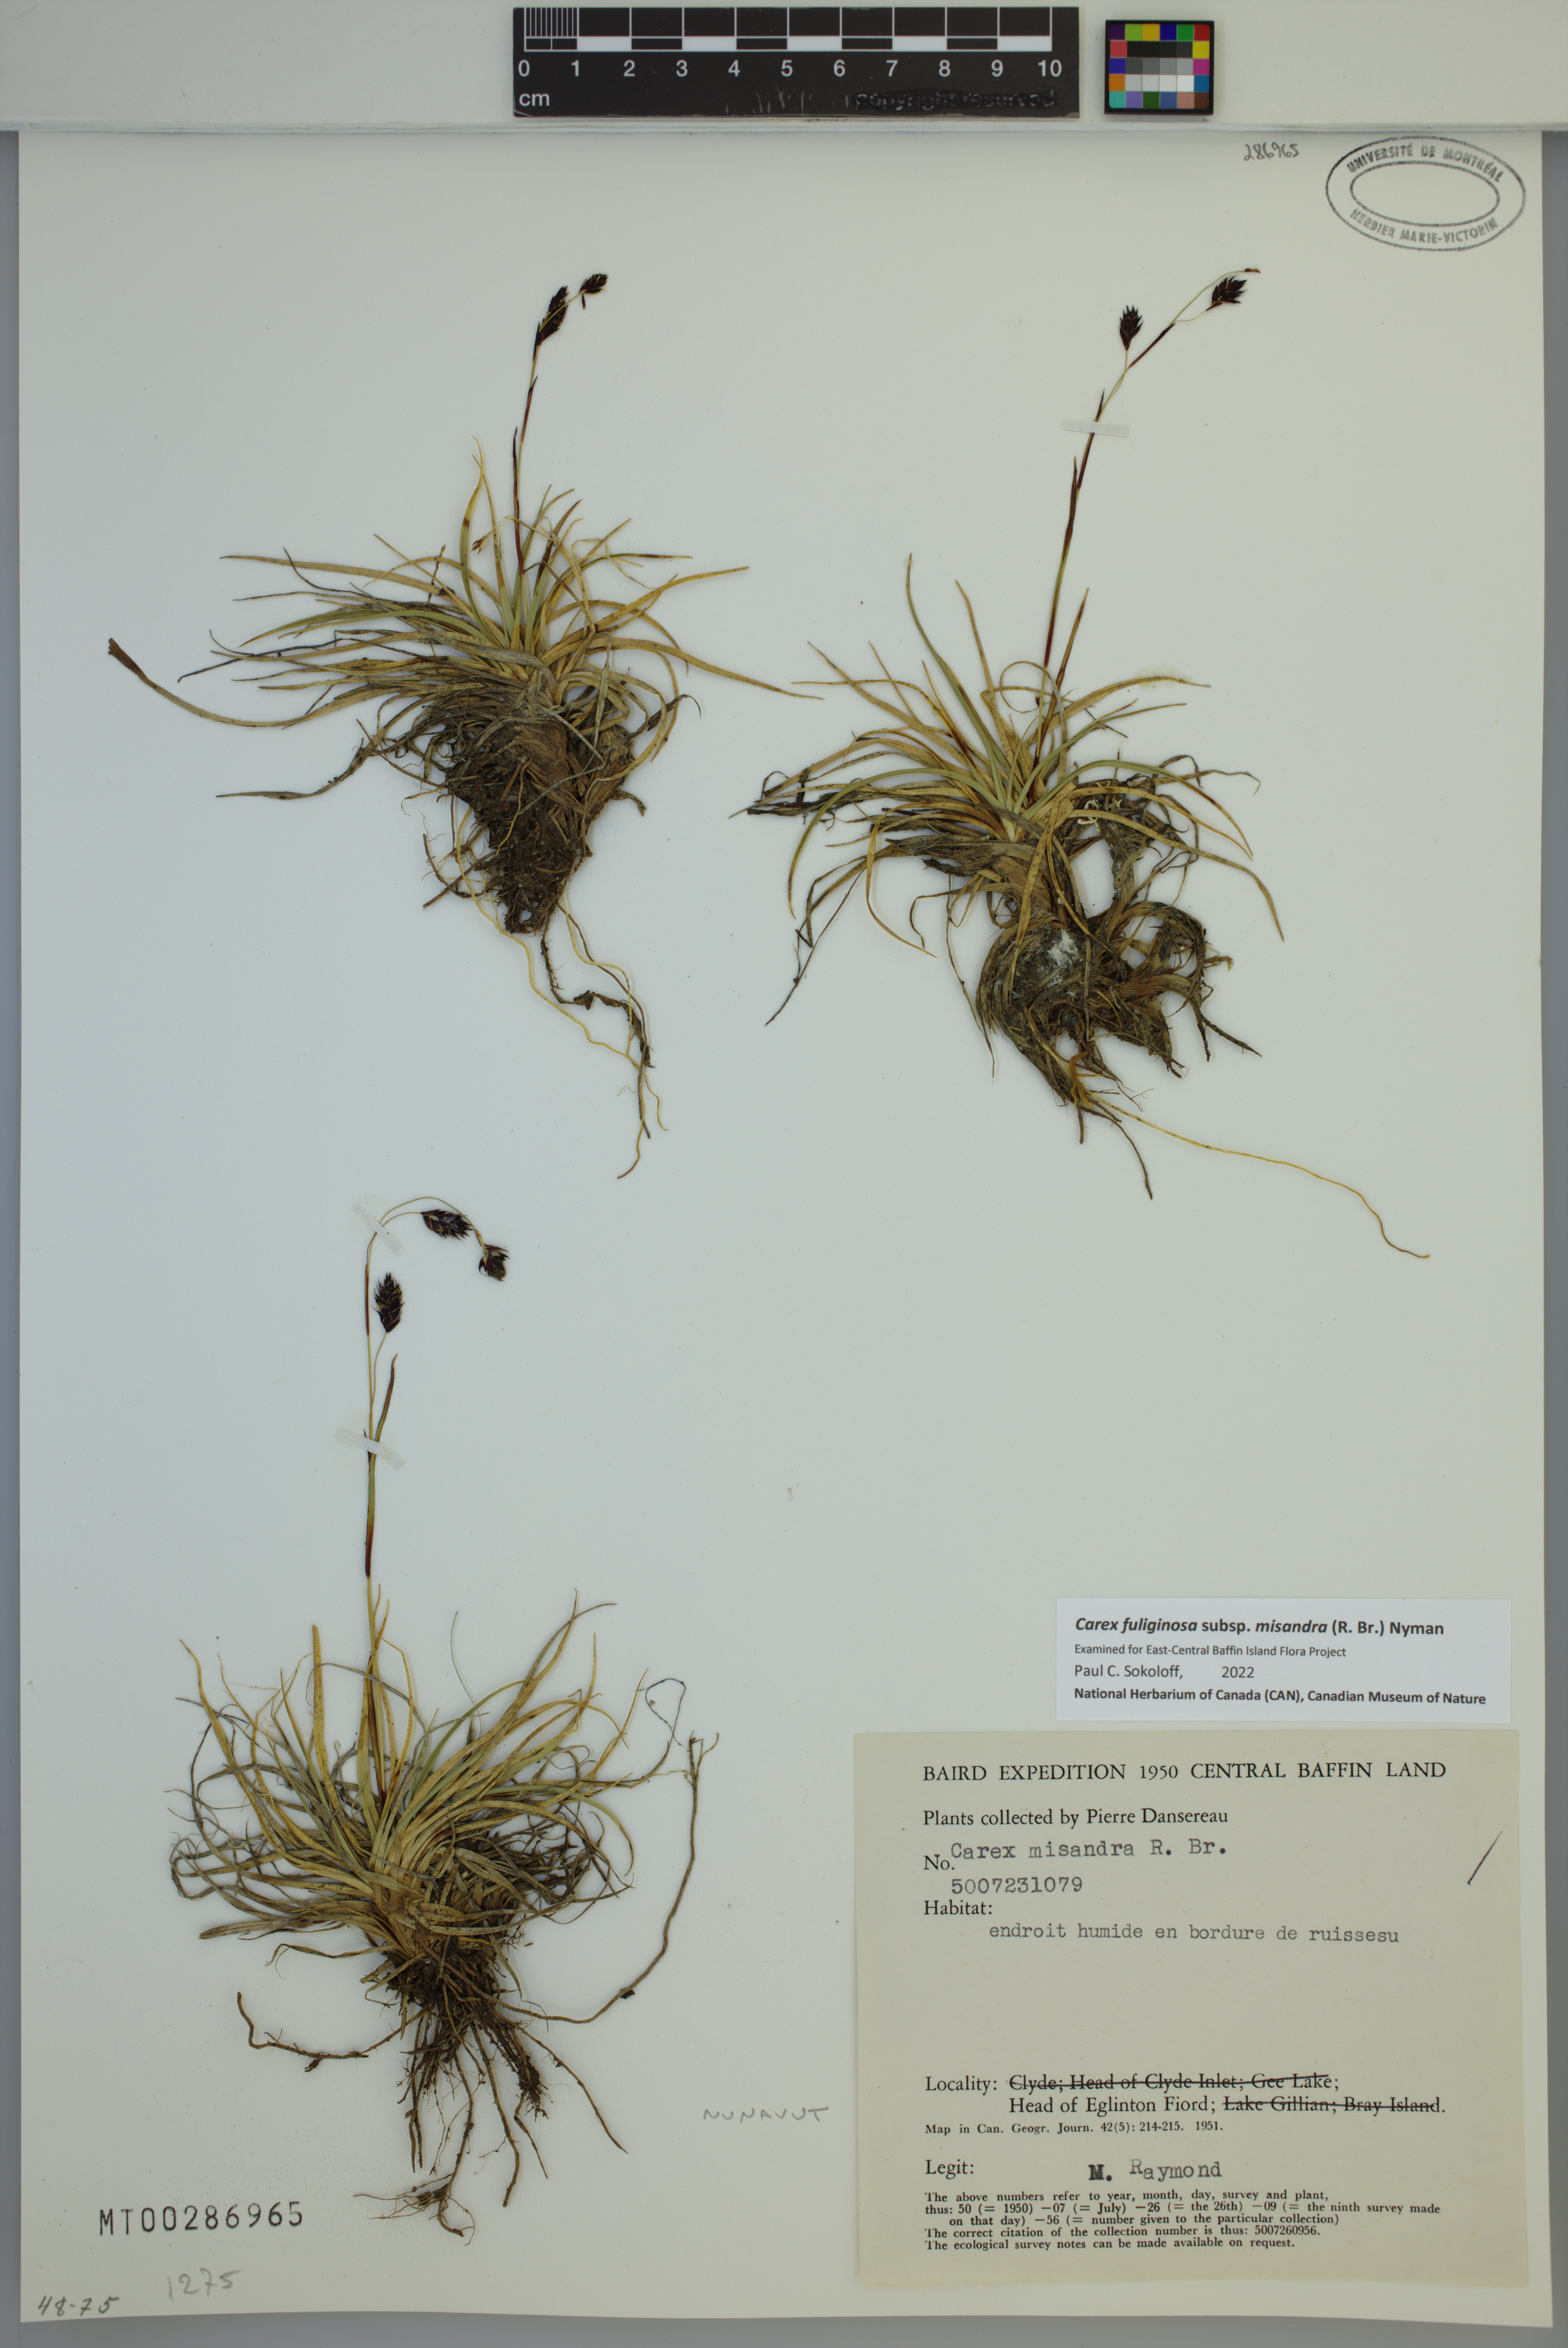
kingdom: Plantae
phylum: Tracheophyta
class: Liliopsida
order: Poales
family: Cyperaceae
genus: Carex
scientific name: Carex fuliginosa
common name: Few-flowered sedge
